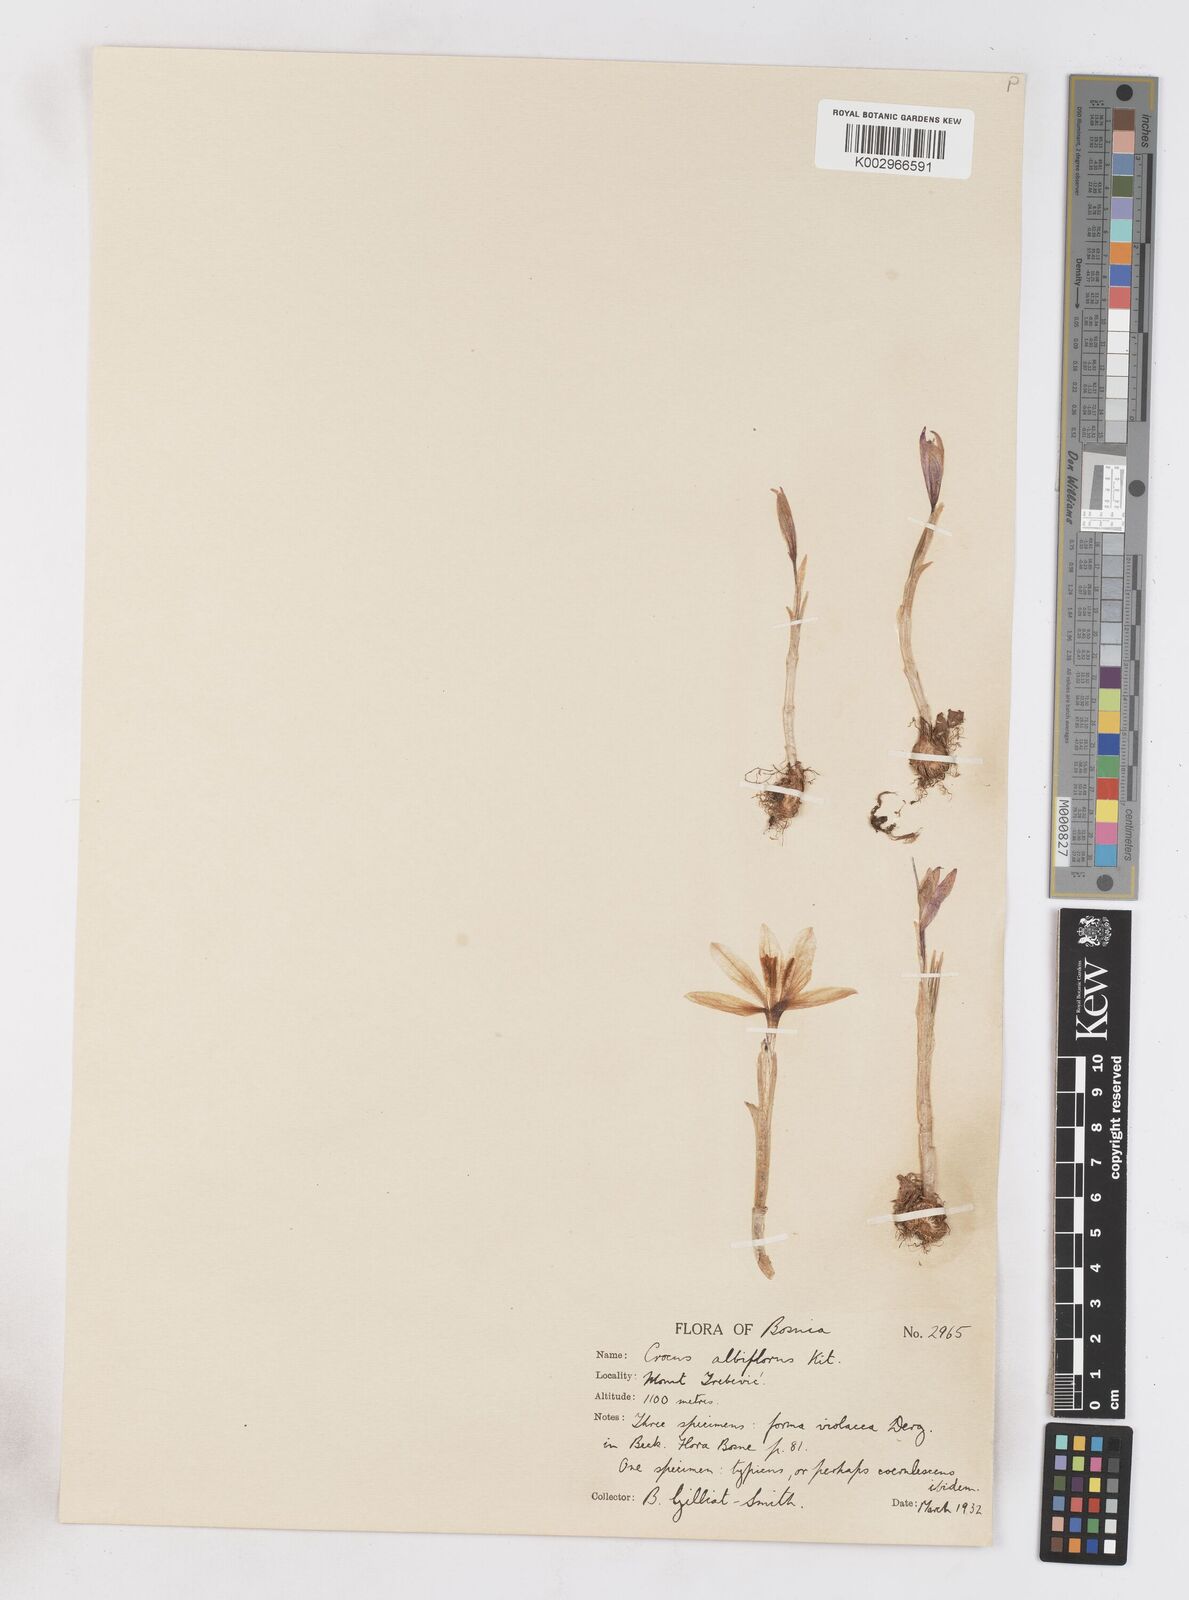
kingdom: Plantae
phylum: Tracheophyta
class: Liliopsida
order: Asparagales
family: Iridaceae
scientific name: Iridaceae
